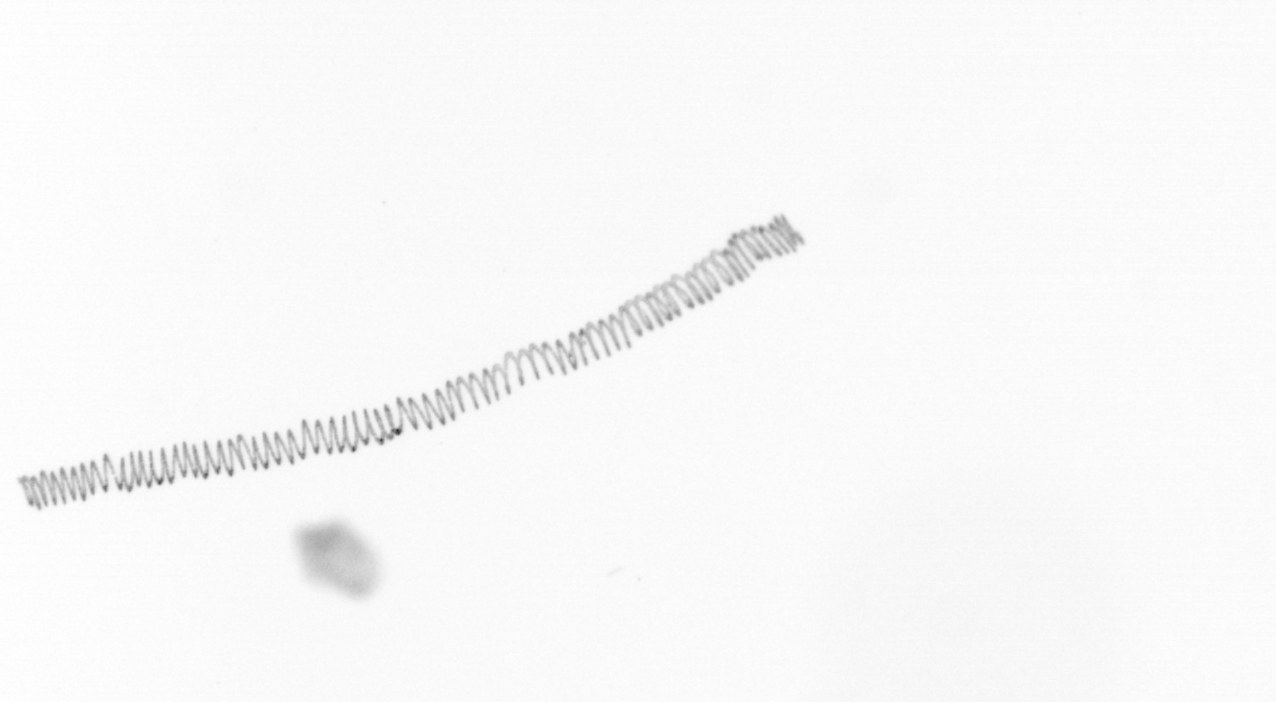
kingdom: Chromista
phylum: Ochrophyta
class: Bacillariophyceae
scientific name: Bacillariophyceae
